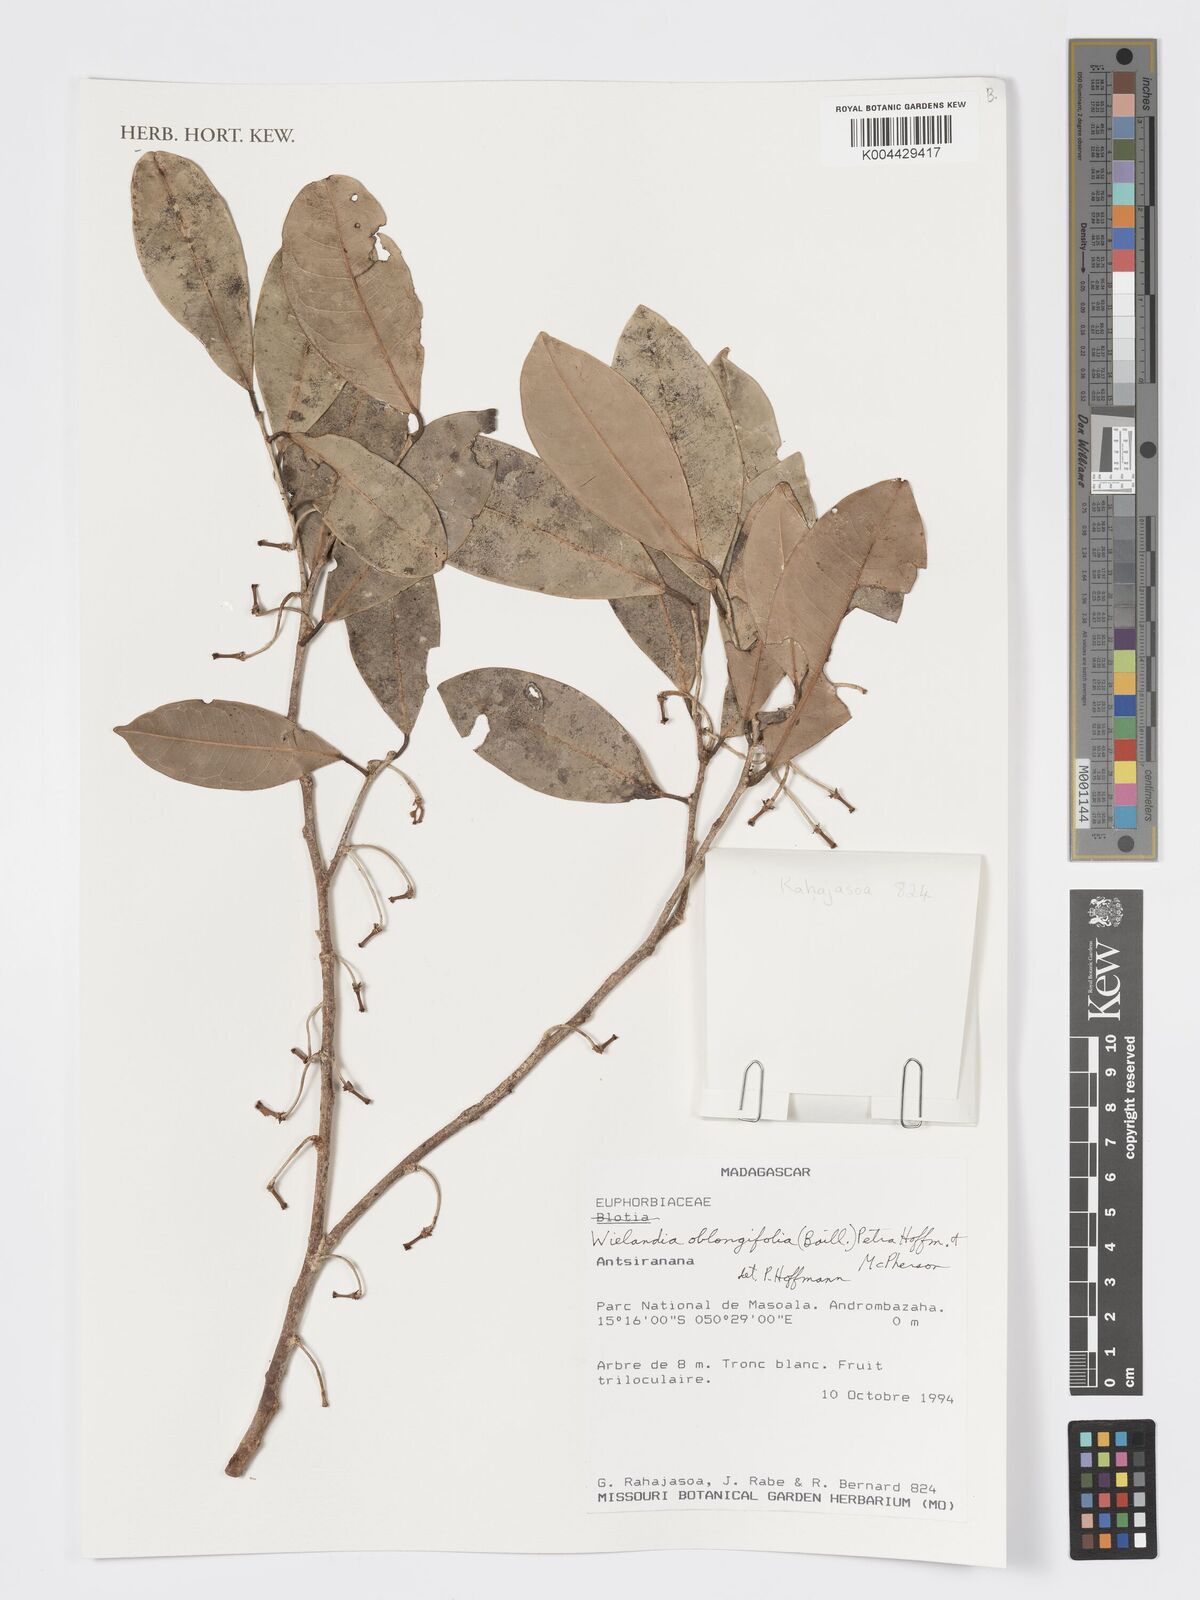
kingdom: Plantae
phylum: Tracheophyta
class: Magnoliopsida
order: Malpighiales
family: Phyllanthaceae
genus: Wielandia
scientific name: Wielandia oblongifolia
